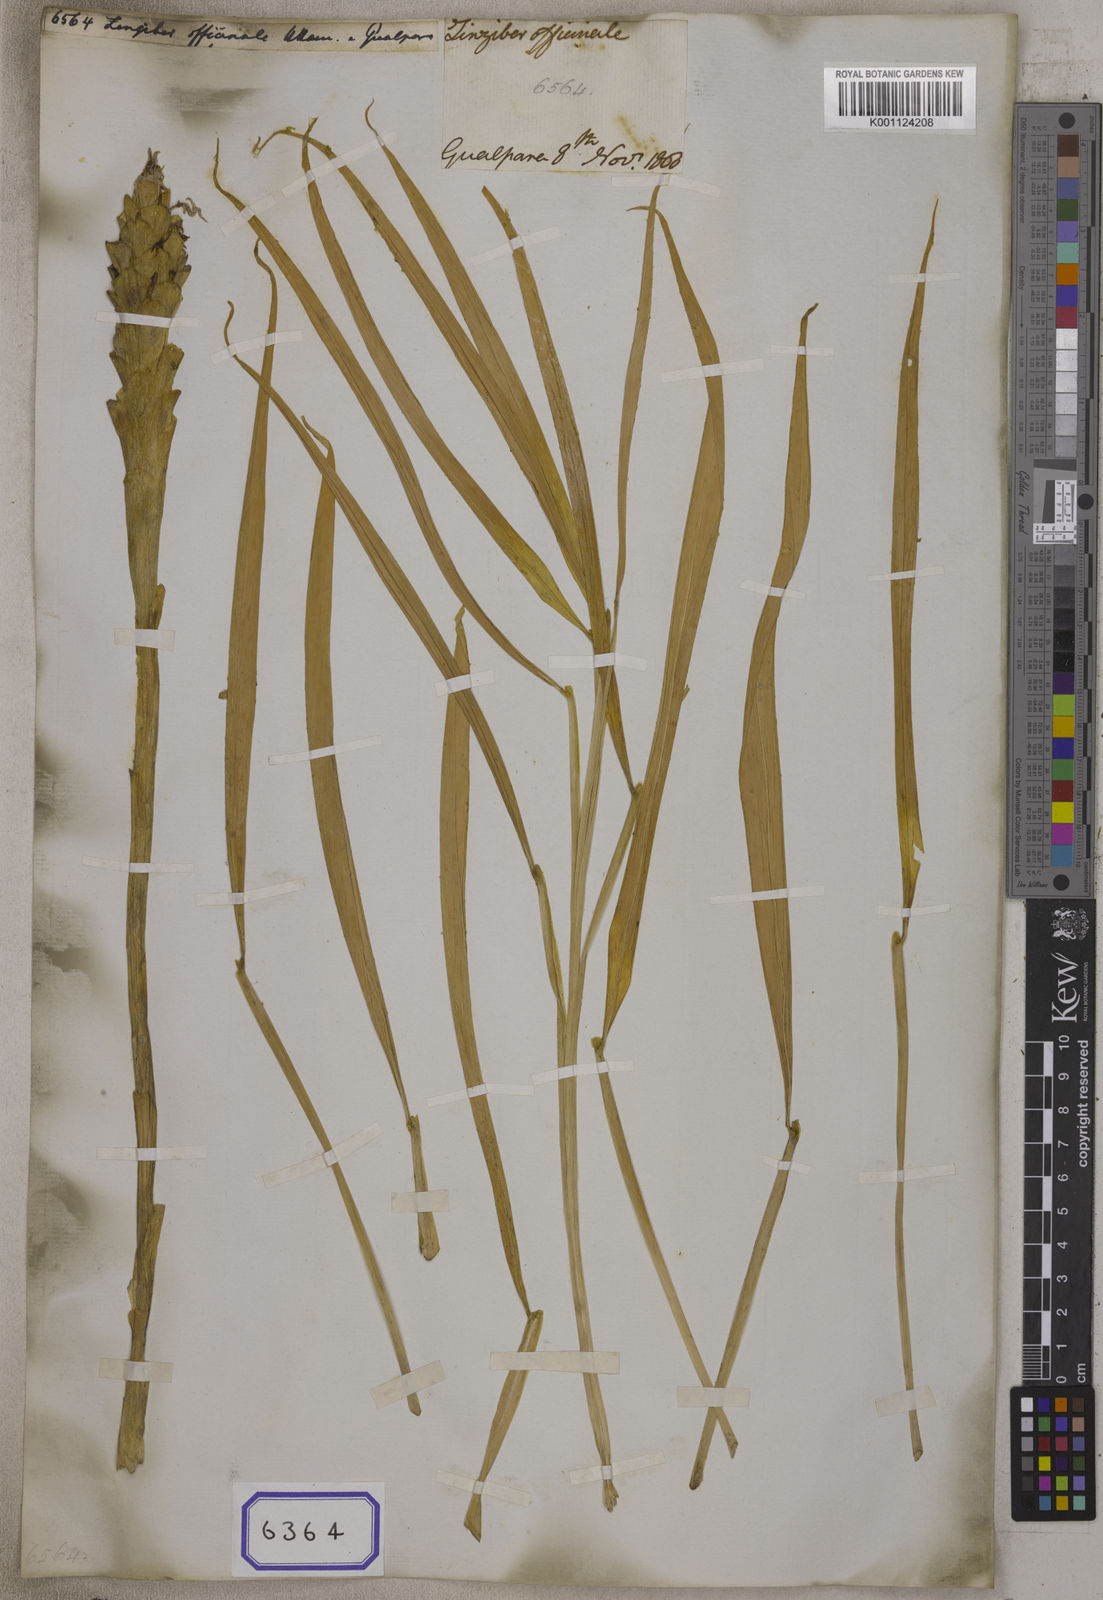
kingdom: Plantae
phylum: Tracheophyta
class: Liliopsida
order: Zingiberales
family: Zingiberaceae
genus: Zingiber
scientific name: Zingiber officinale
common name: Ginger
